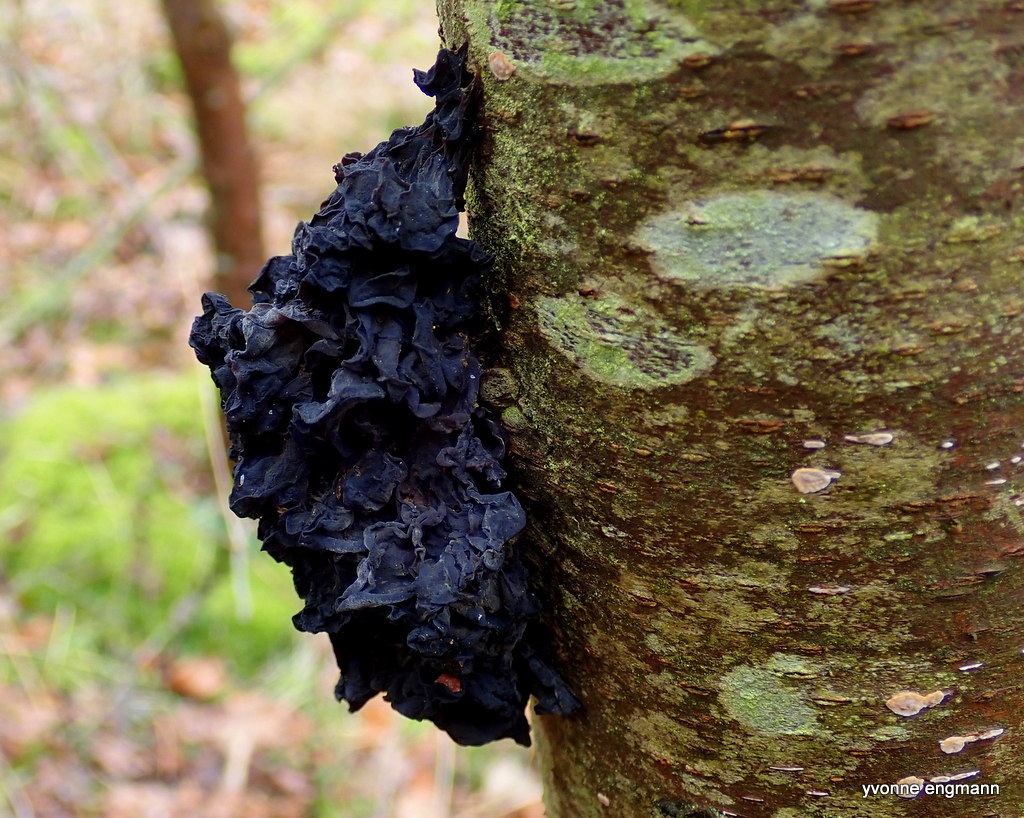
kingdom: Fungi
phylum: Basidiomycota
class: Agaricomycetes
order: Auriculariales
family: Auriculariaceae
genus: Exidia
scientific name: Exidia nigricans
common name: almindelig bævretop
